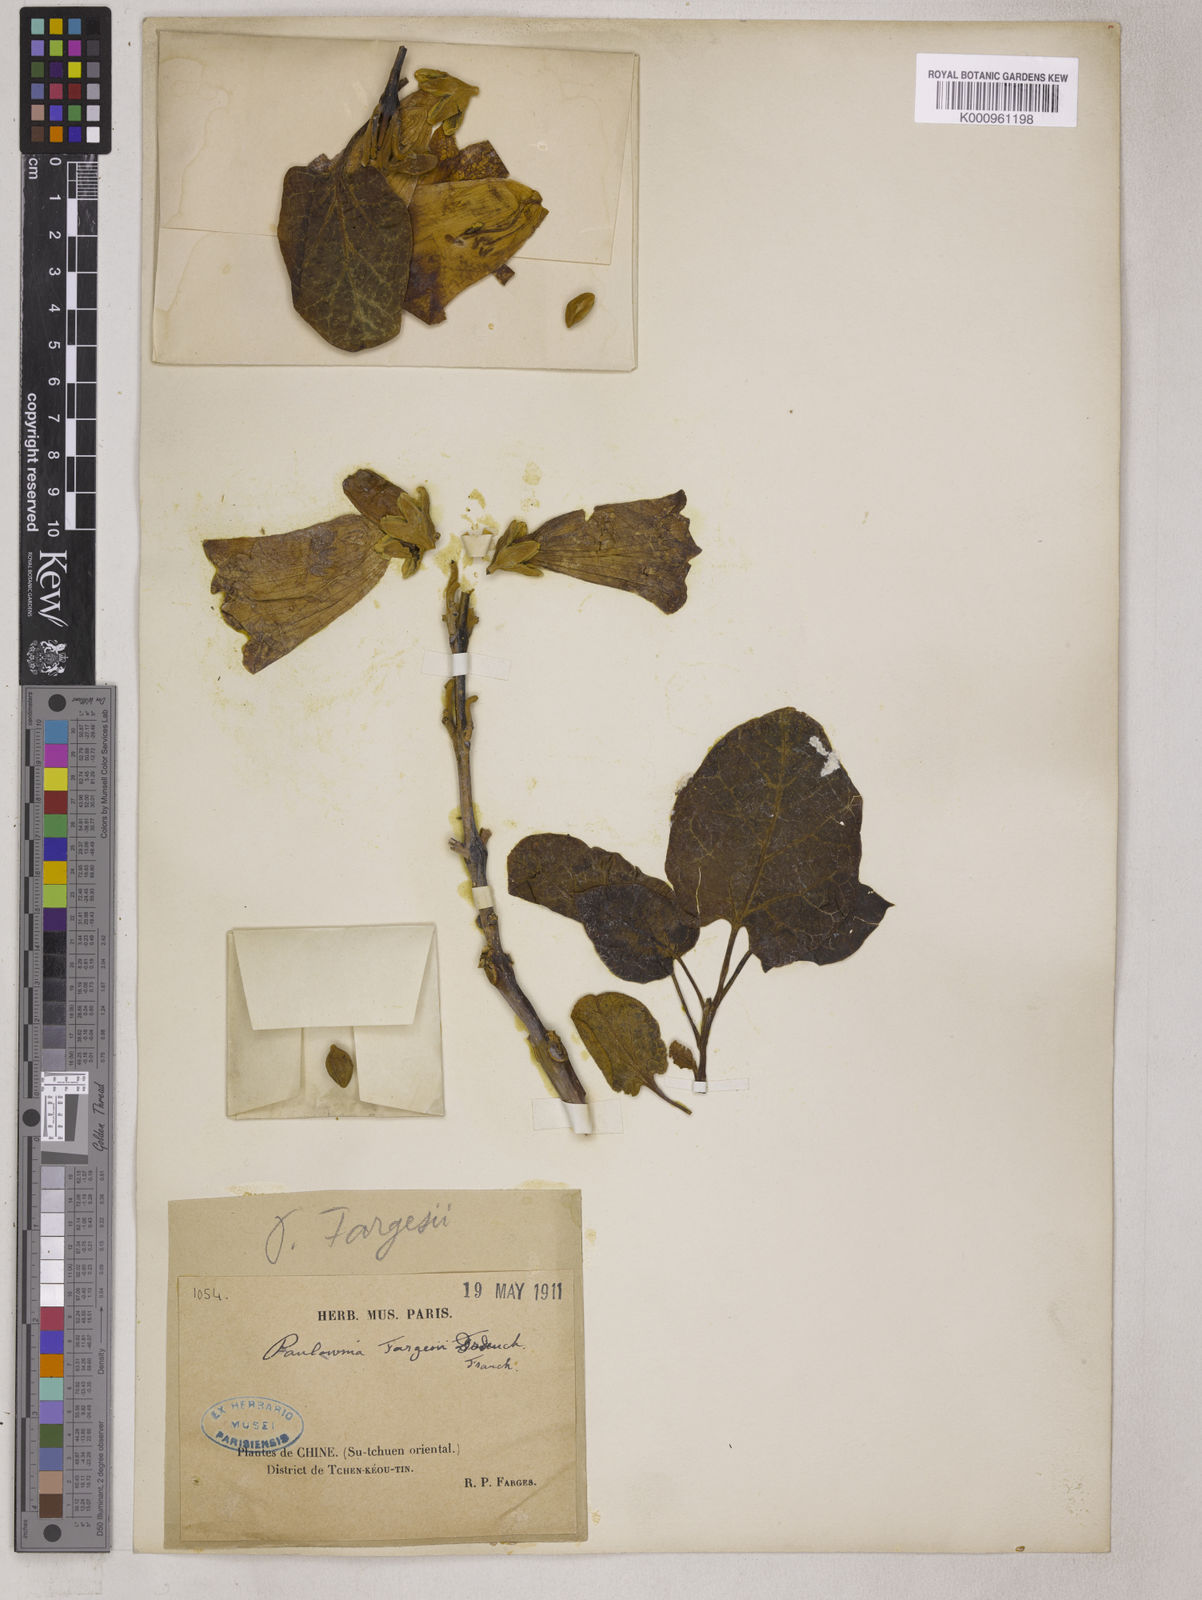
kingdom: Plantae
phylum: Tracheophyta
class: Magnoliopsida
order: Lamiales
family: Paulowniaceae
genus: Paulownia
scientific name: Paulownia fargesii
